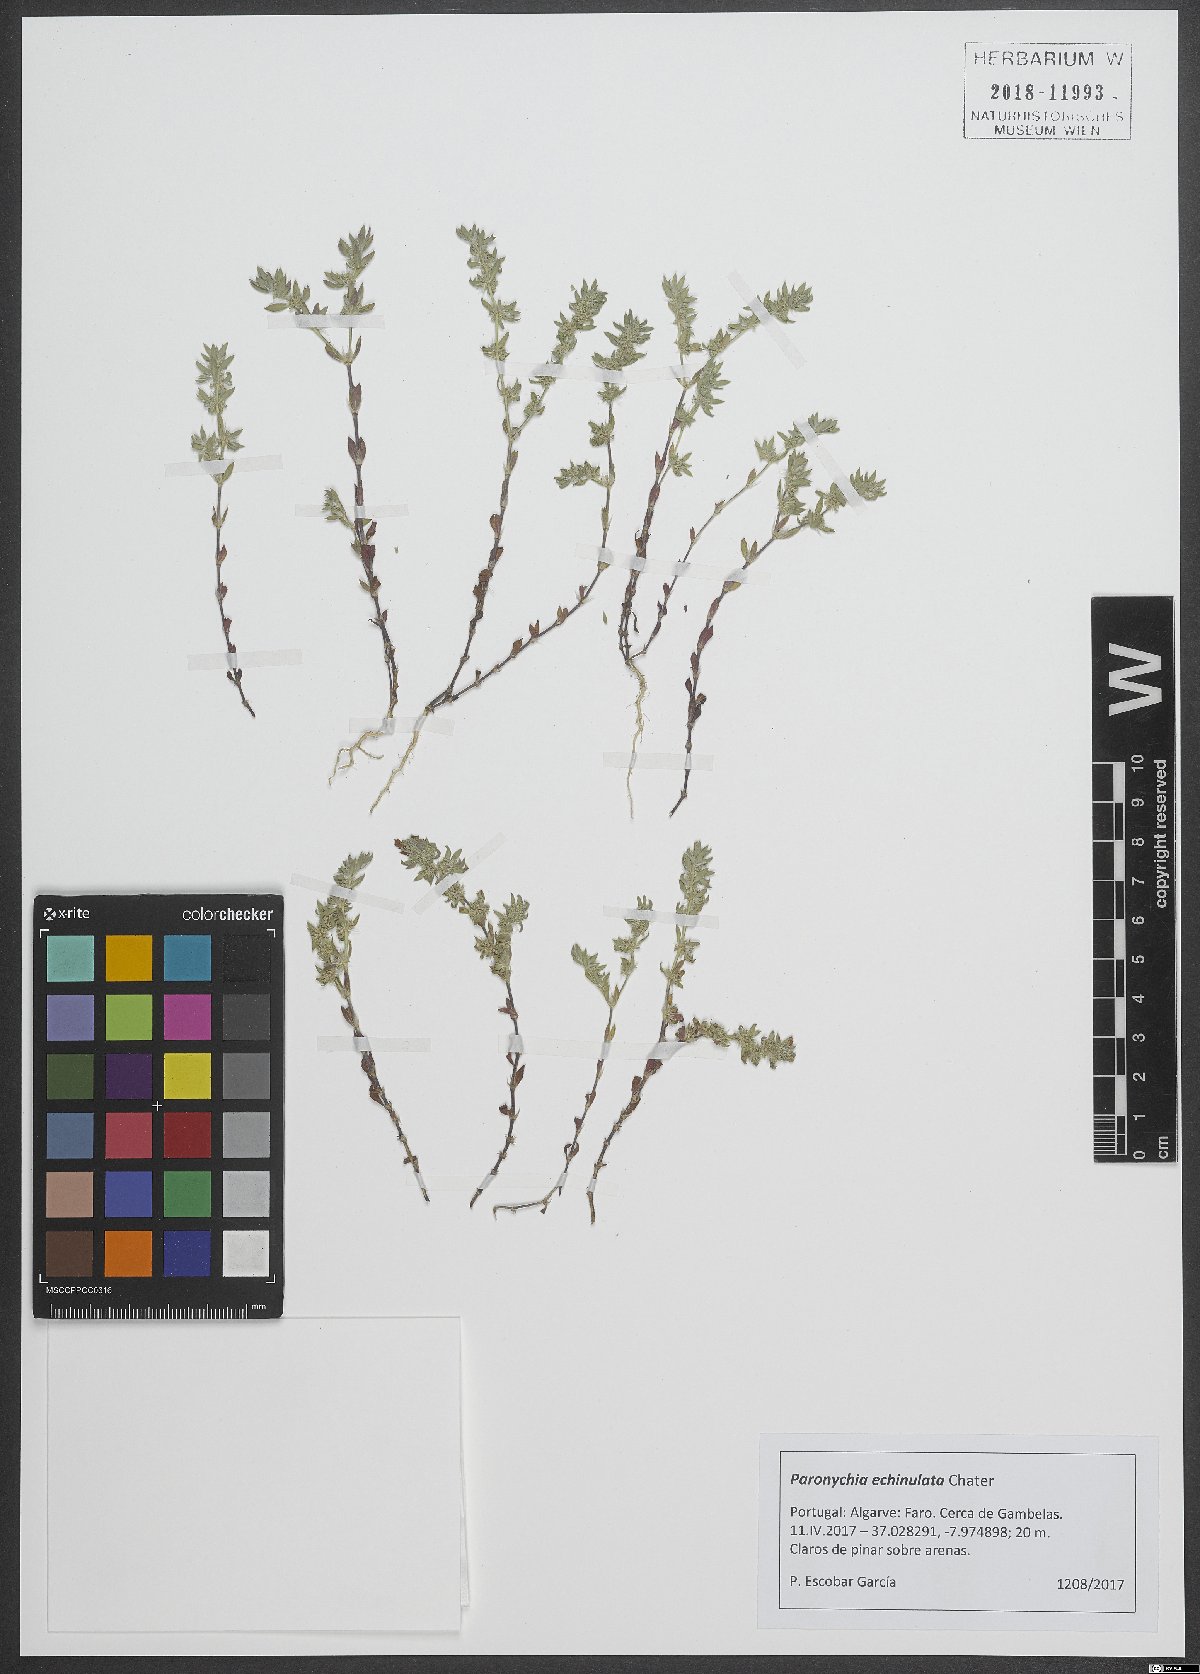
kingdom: Plantae
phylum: Tracheophyta
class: Magnoliopsida
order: Caryophyllales
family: Caryophyllaceae
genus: Paronychia
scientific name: Paronychia echinulata
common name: Eurasian nailwort
